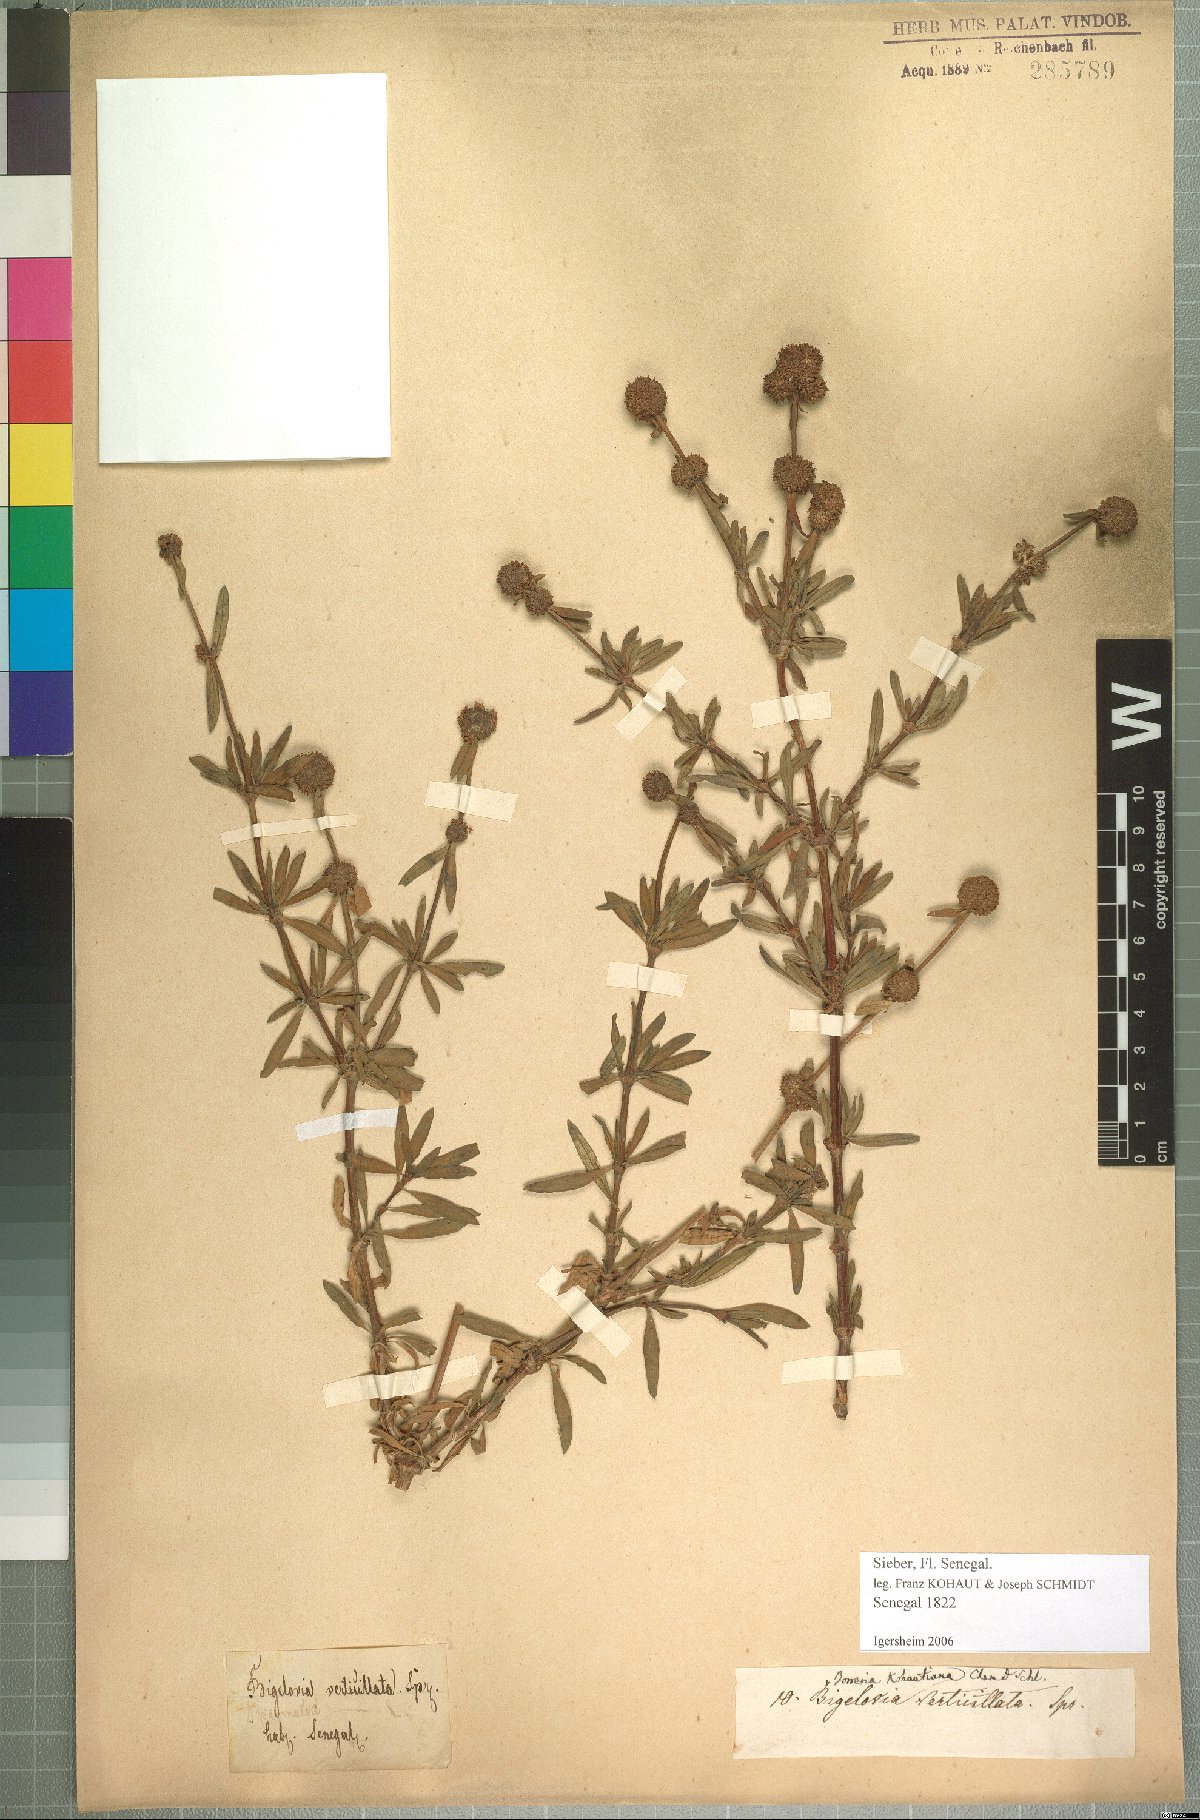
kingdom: Plantae
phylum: Tracheophyta
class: Magnoliopsida
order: Gentianales
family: Rubiaceae
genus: Spermacoce
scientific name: Spermacoce verticillata
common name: Shrubby false buttonweed
